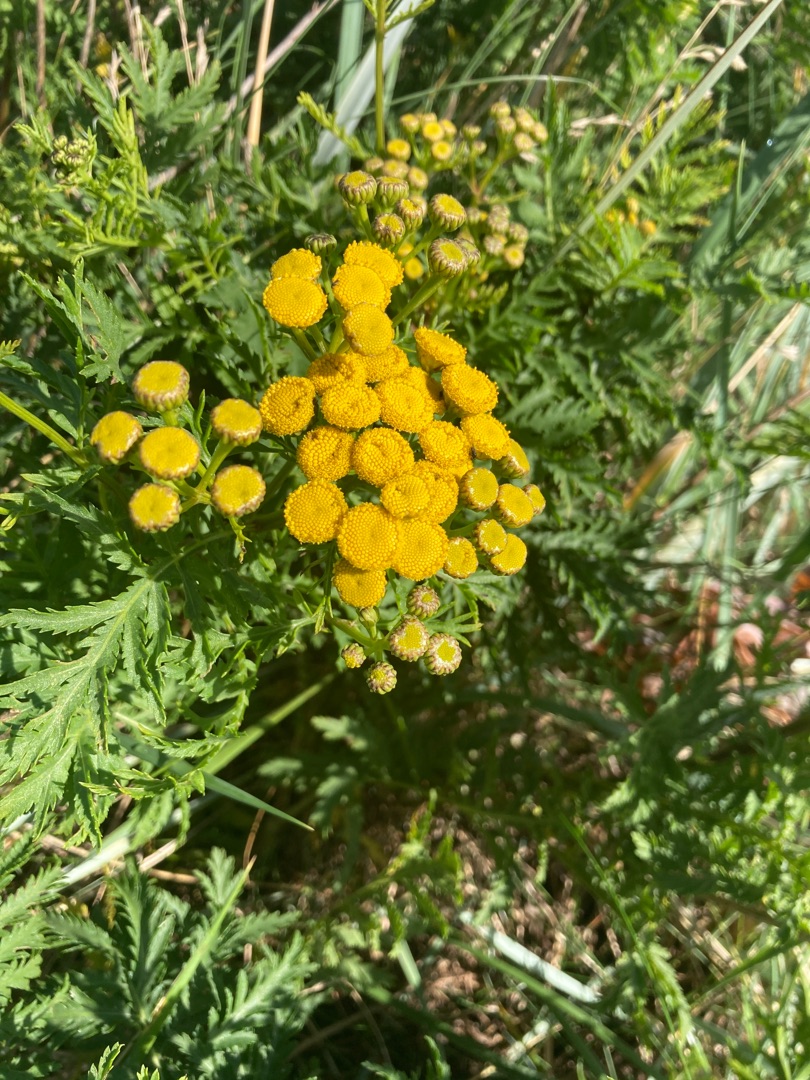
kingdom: Plantae
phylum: Tracheophyta
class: Magnoliopsida
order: Asterales
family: Asteraceae
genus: Tanacetum
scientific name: Tanacetum vulgare
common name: Rejnfan
